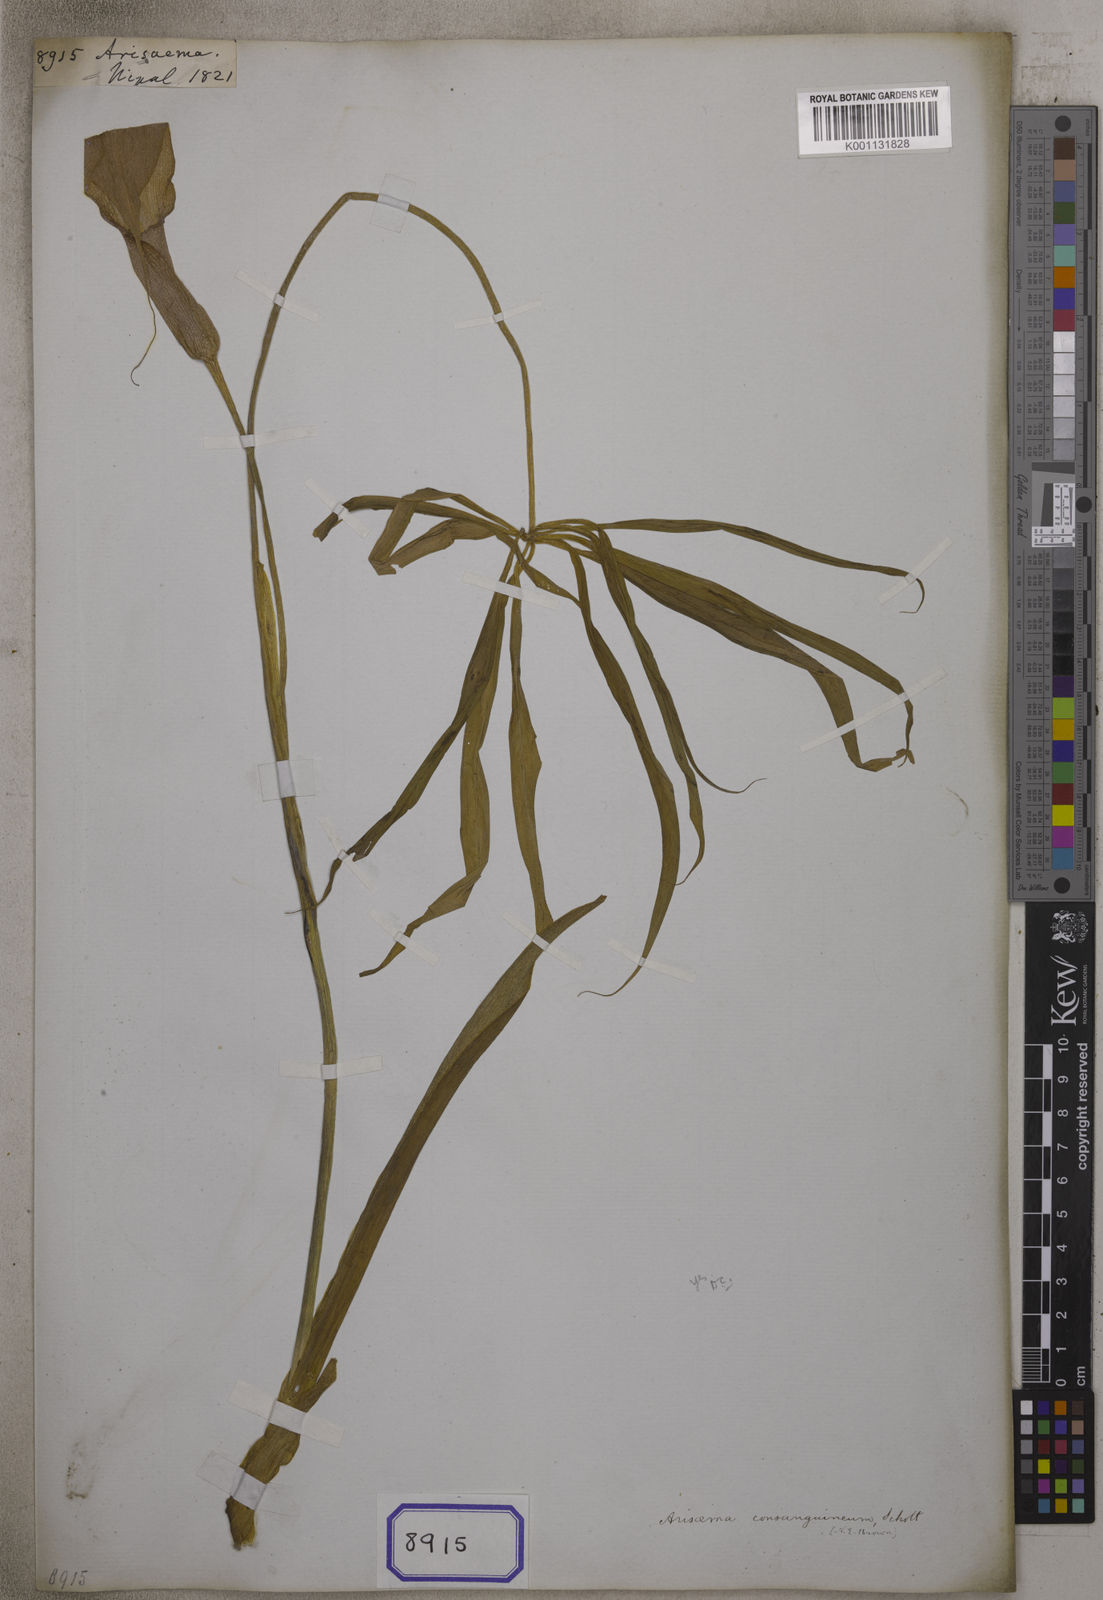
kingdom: Plantae
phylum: Tracheophyta
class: Liliopsida
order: Alismatales
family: Araceae
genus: Arisaema
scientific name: Arisaema
